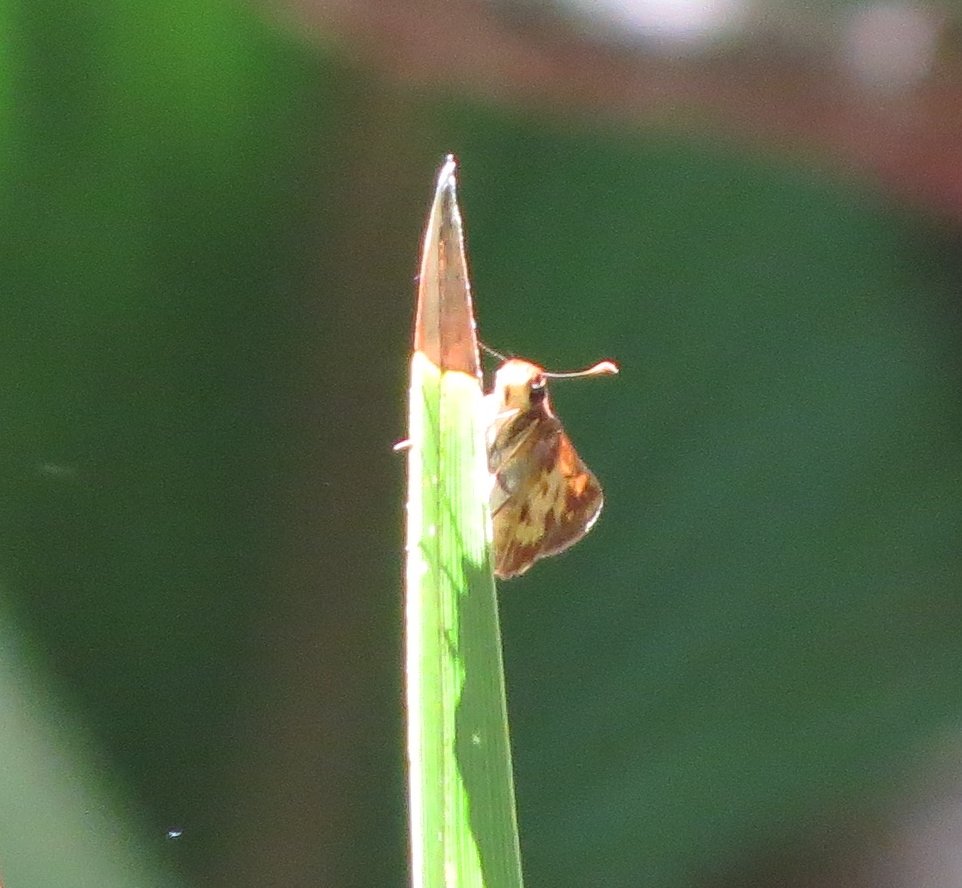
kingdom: Animalia
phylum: Arthropoda
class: Insecta
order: Lepidoptera
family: Hesperiidae
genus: Lon
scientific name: Lon zabulon
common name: Zabulon Skipper
